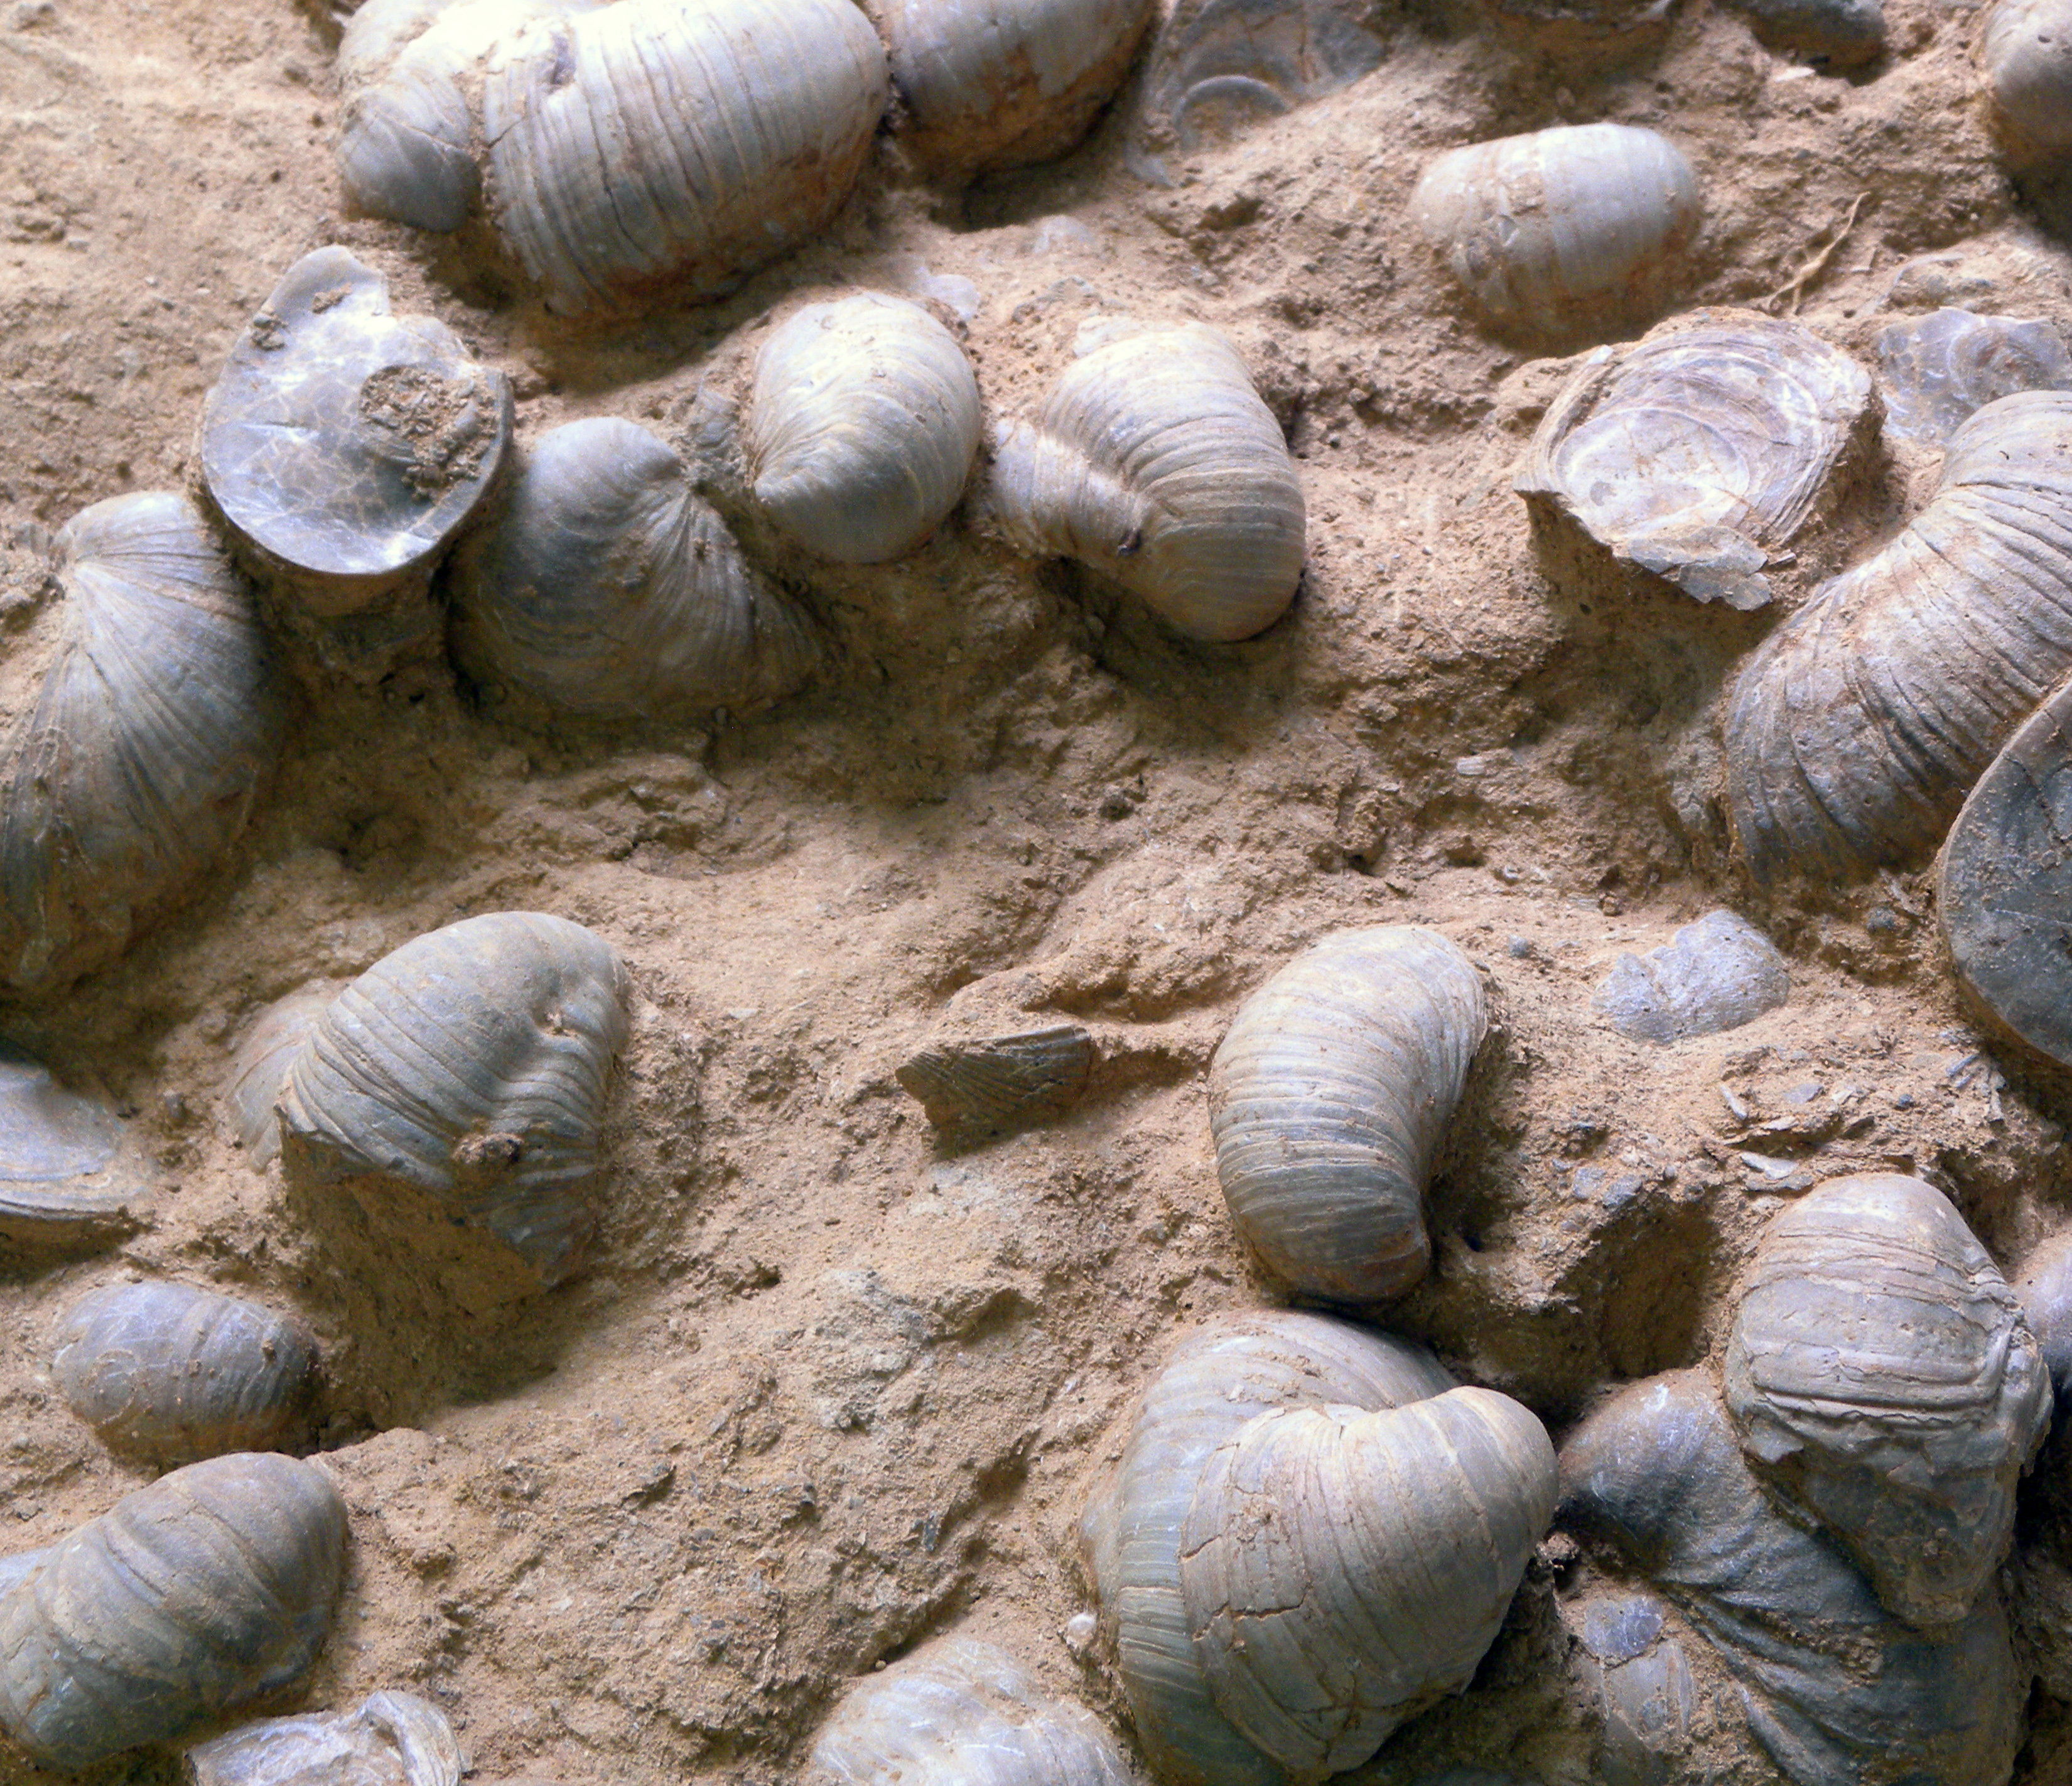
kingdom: Animalia
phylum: Mollusca
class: Bivalvia
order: Ostreida
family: Gryphaeidae
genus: Gryphaea
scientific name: Gryphaea arcuata
